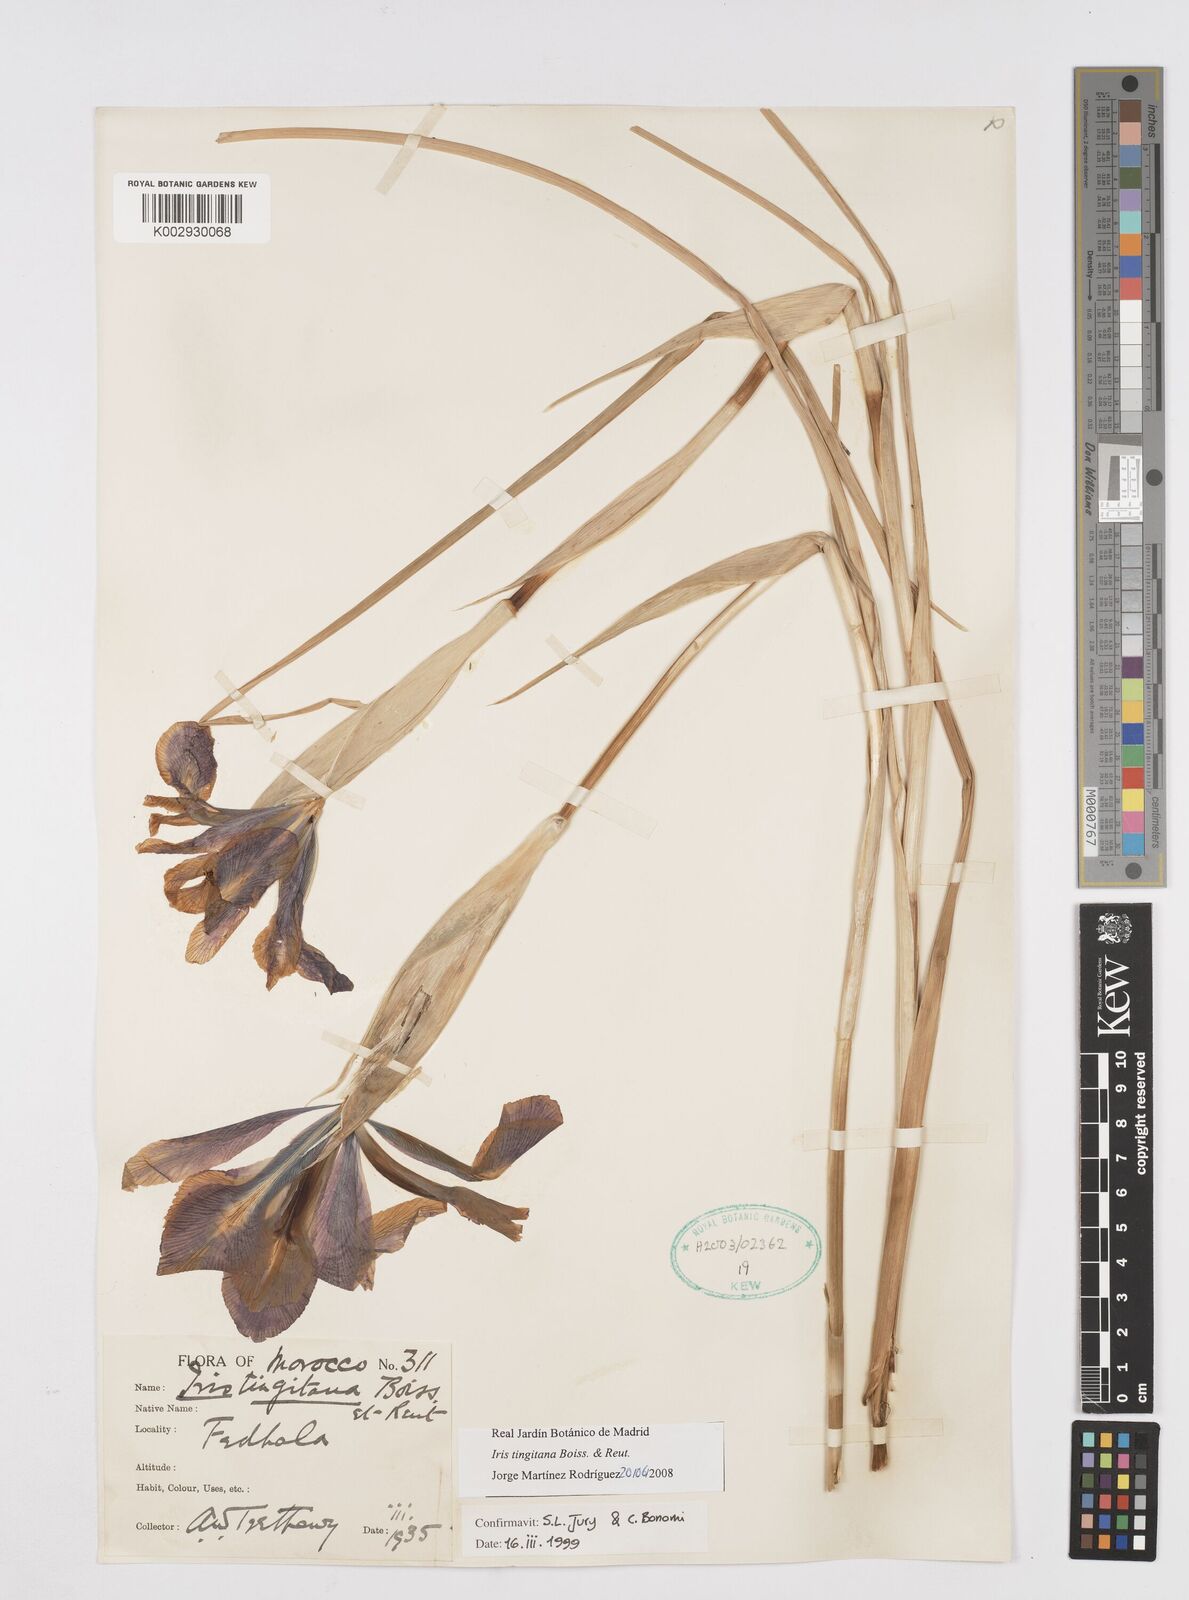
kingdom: Plantae
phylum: Tracheophyta
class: Liliopsida
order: Asparagales
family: Iridaceae
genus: Iris
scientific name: Iris tingitana
